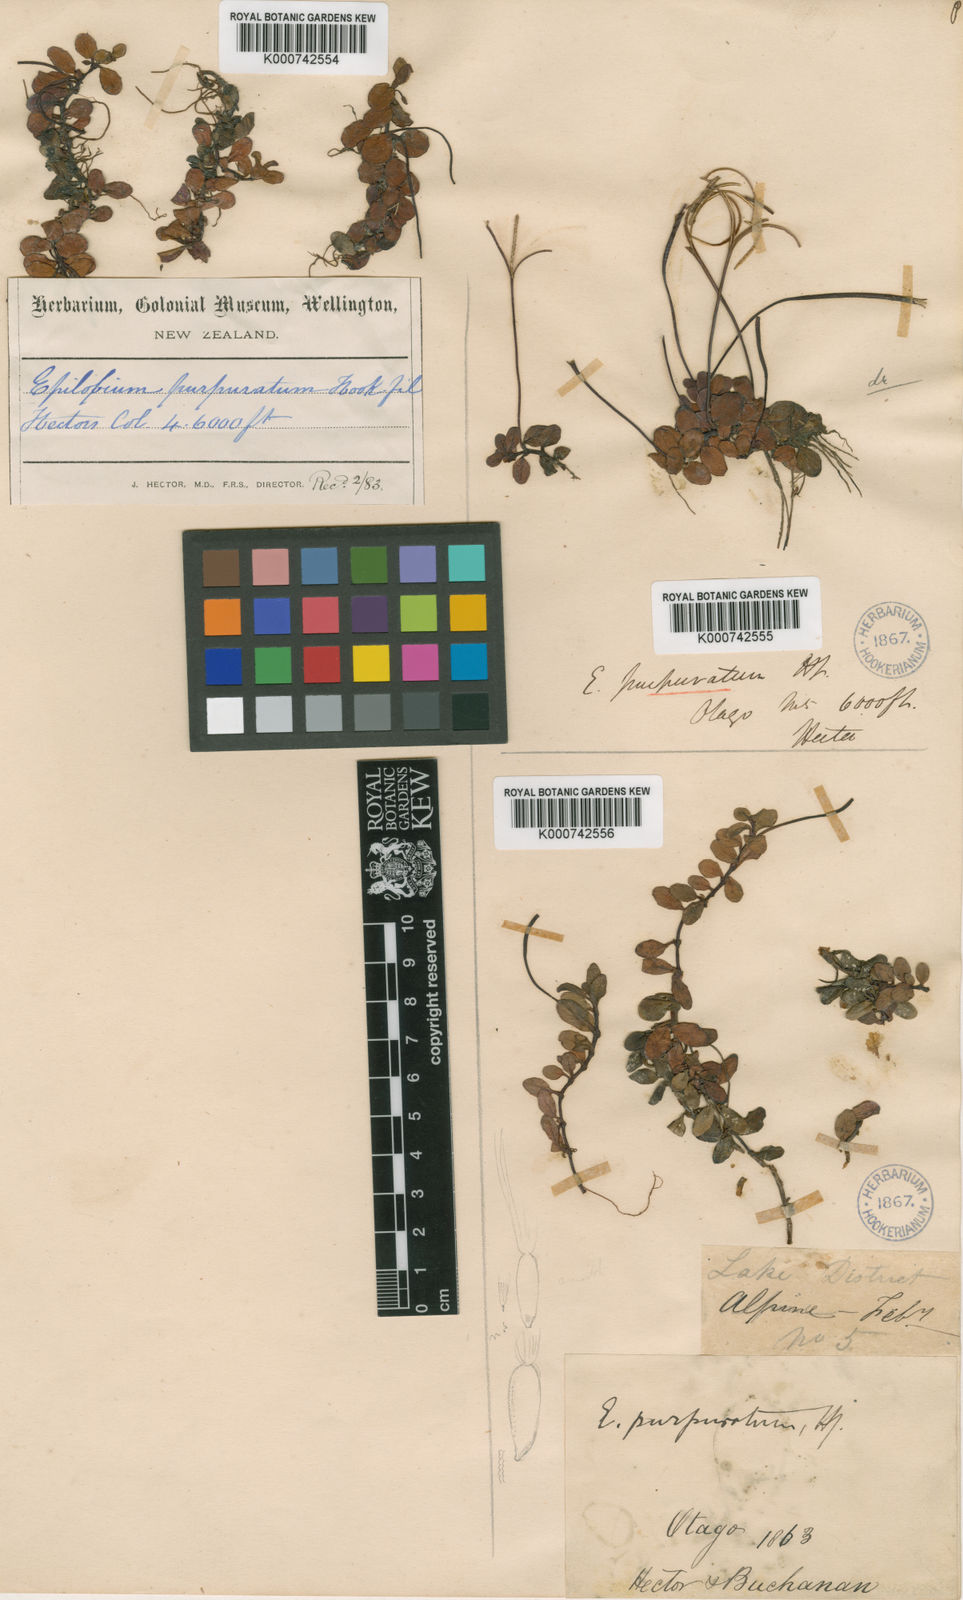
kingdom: Plantae
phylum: Tracheophyta
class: Magnoliopsida
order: Myrtales
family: Onagraceae
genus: Epilobium
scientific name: Epilobium purpureum
